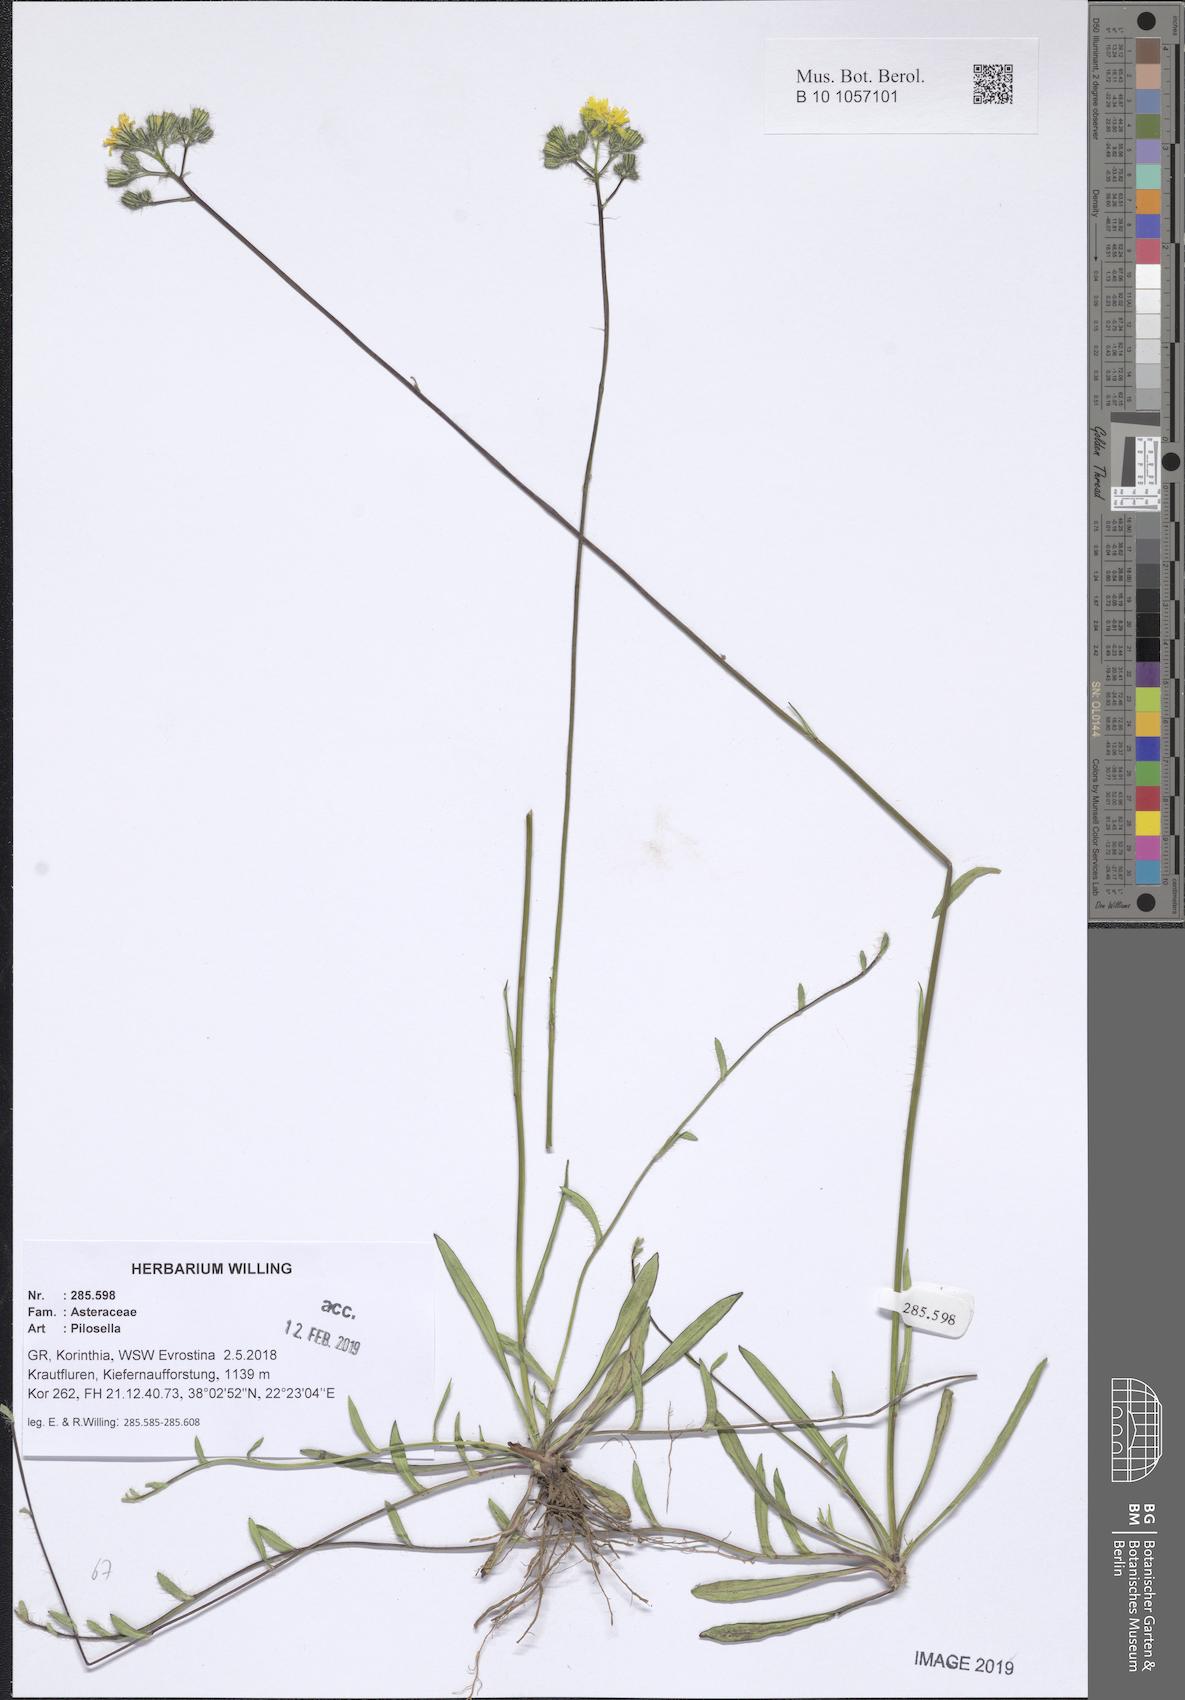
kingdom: Plantae
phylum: Tracheophyta
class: Magnoliopsida
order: Asterales
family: Asteraceae
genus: Pilosella
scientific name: Pilosella
